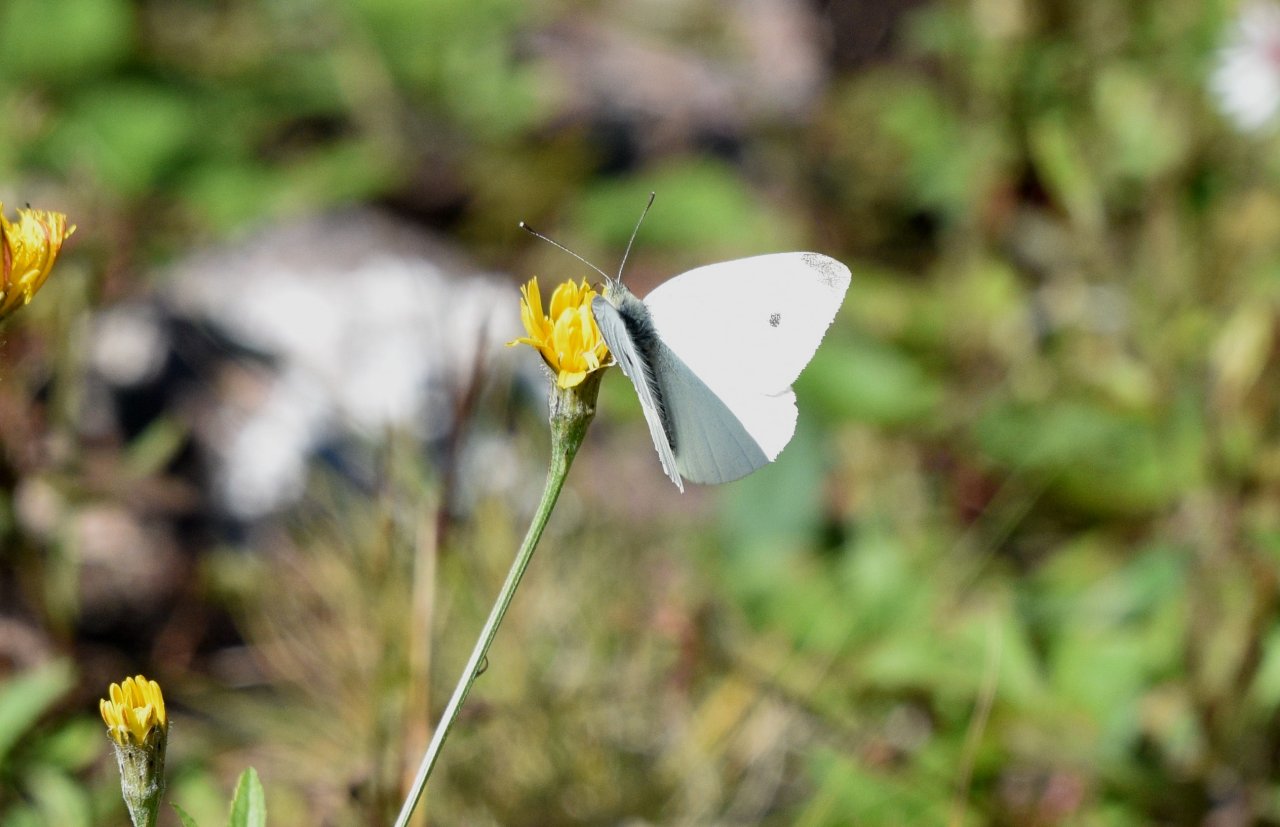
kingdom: Animalia
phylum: Arthropoda
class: Insecta
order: Lepidoptera
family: Pieridae
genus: Pieris
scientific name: Pieris rapae
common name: Cabbage White
